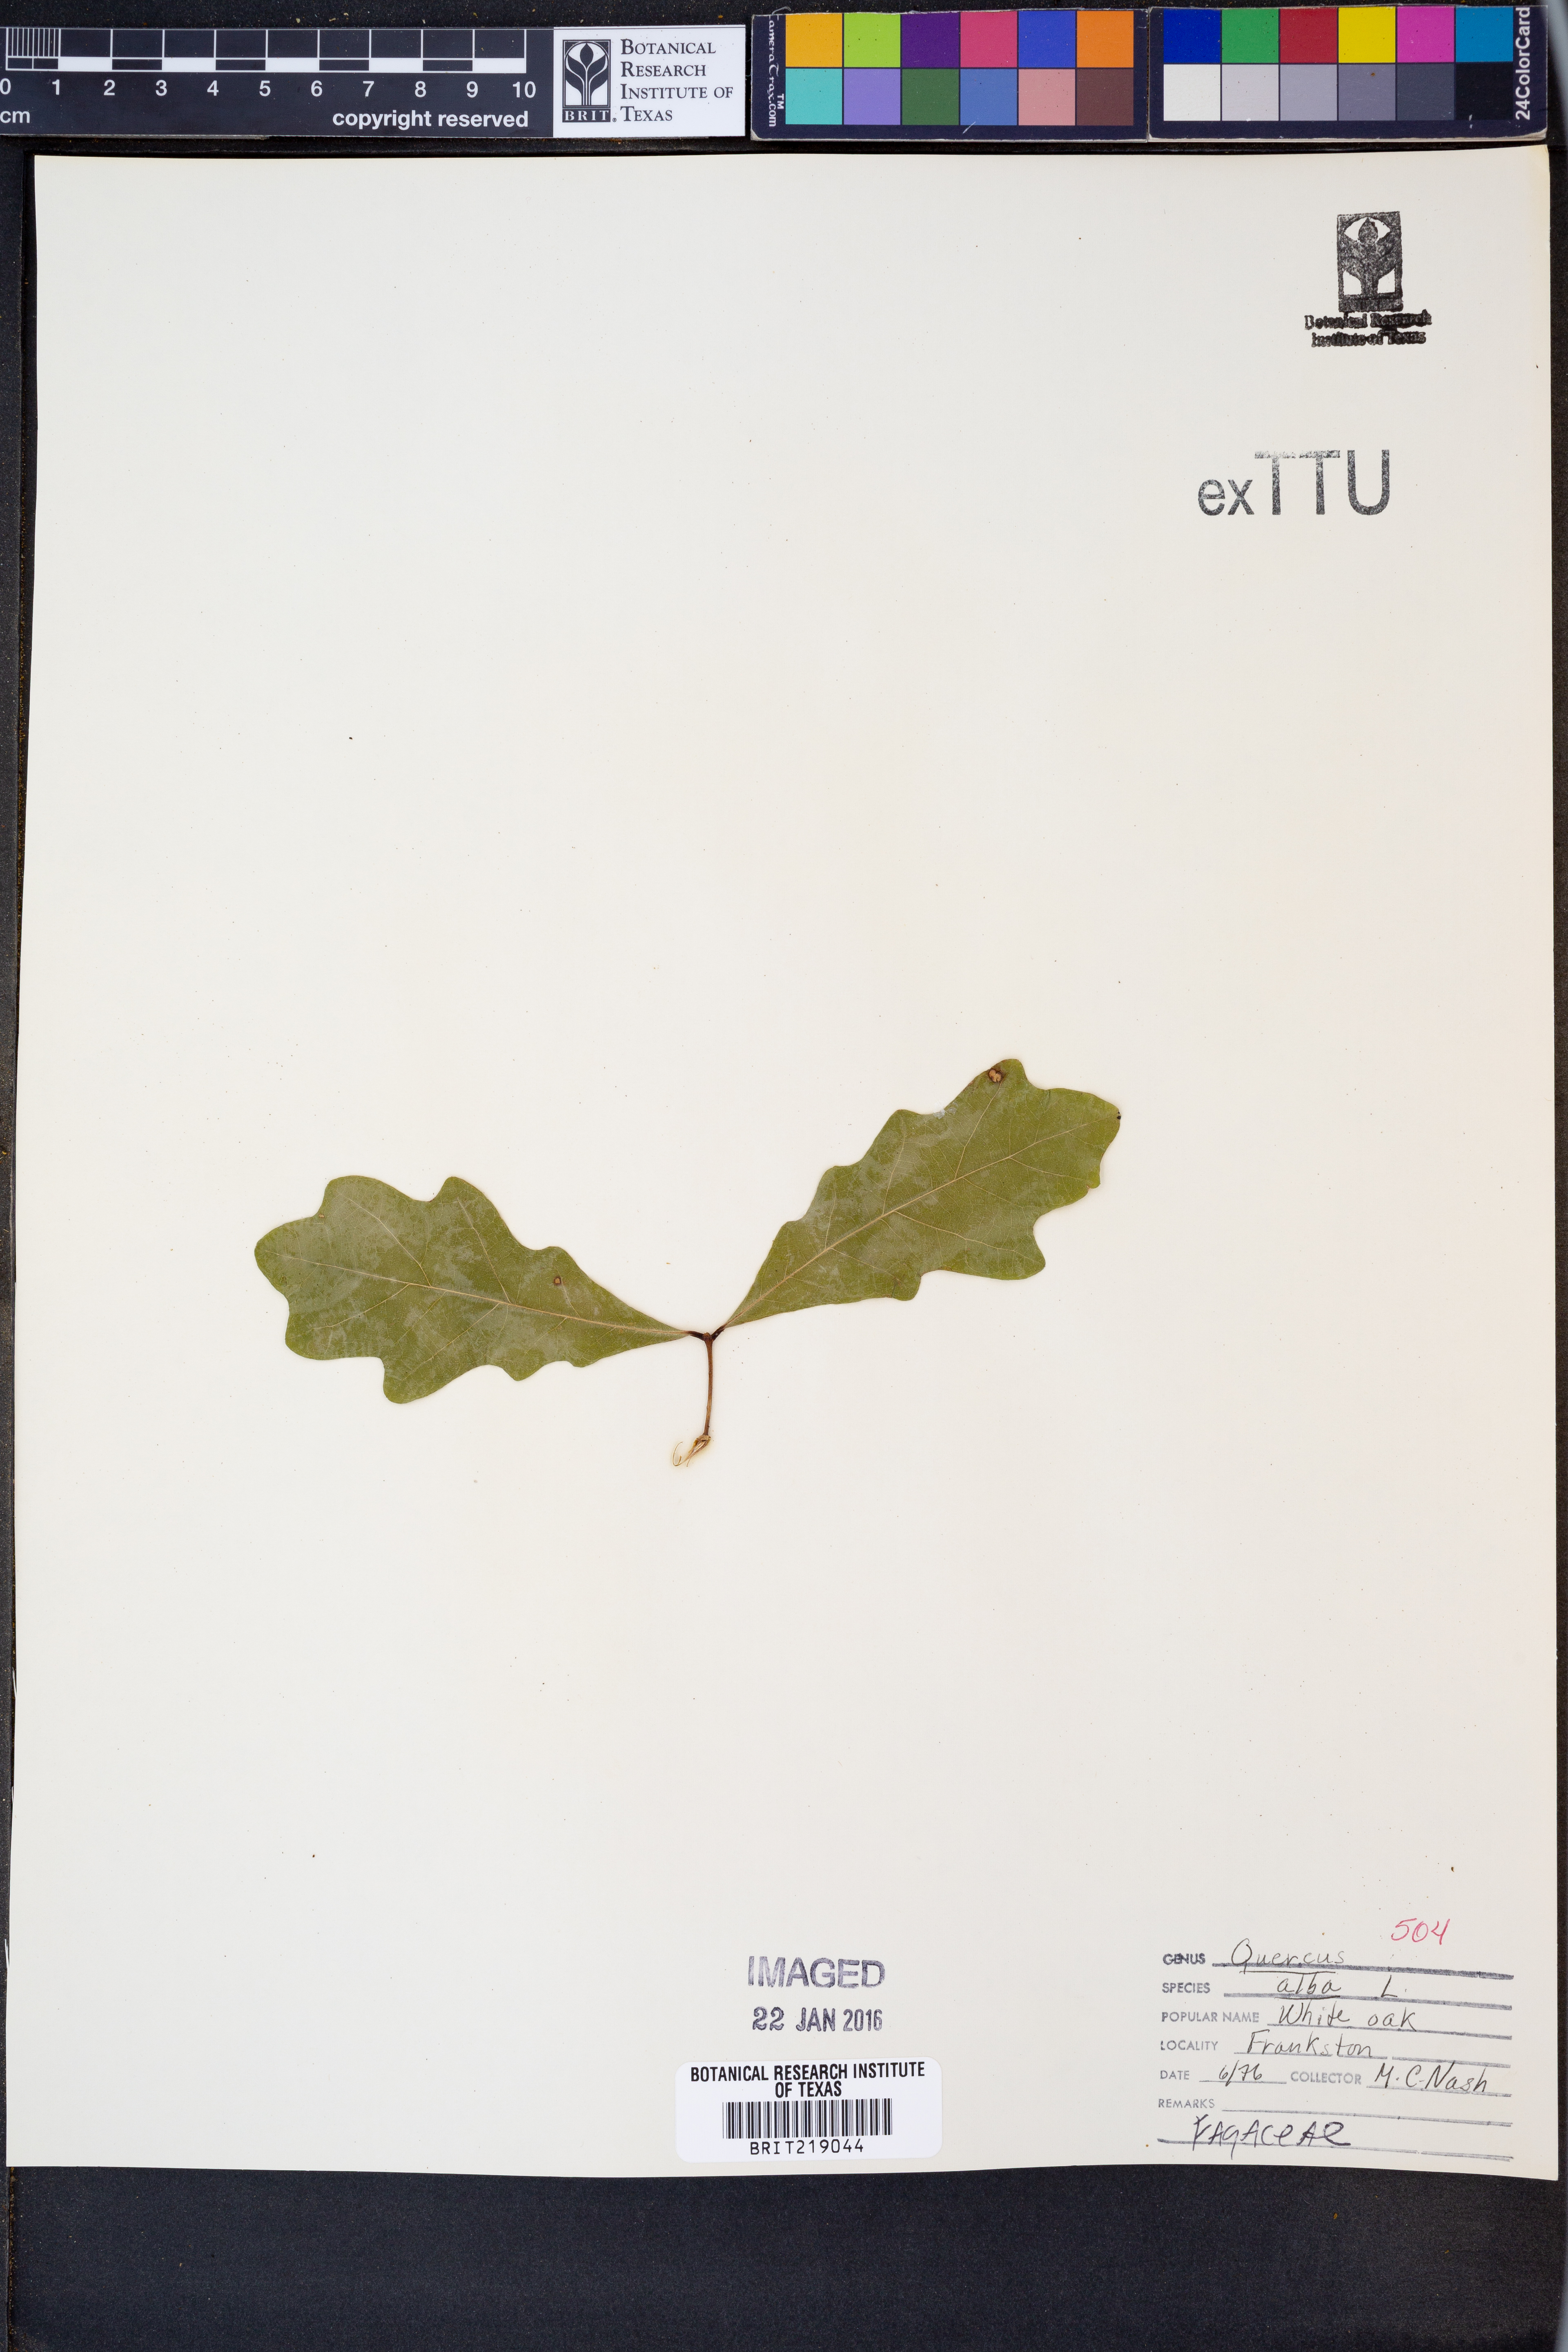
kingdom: Plantae
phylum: Tracheophyta
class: Magnoliopsida
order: Fagales
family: Fagaceae
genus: Quercus
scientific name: Quercus alba
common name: White oak
